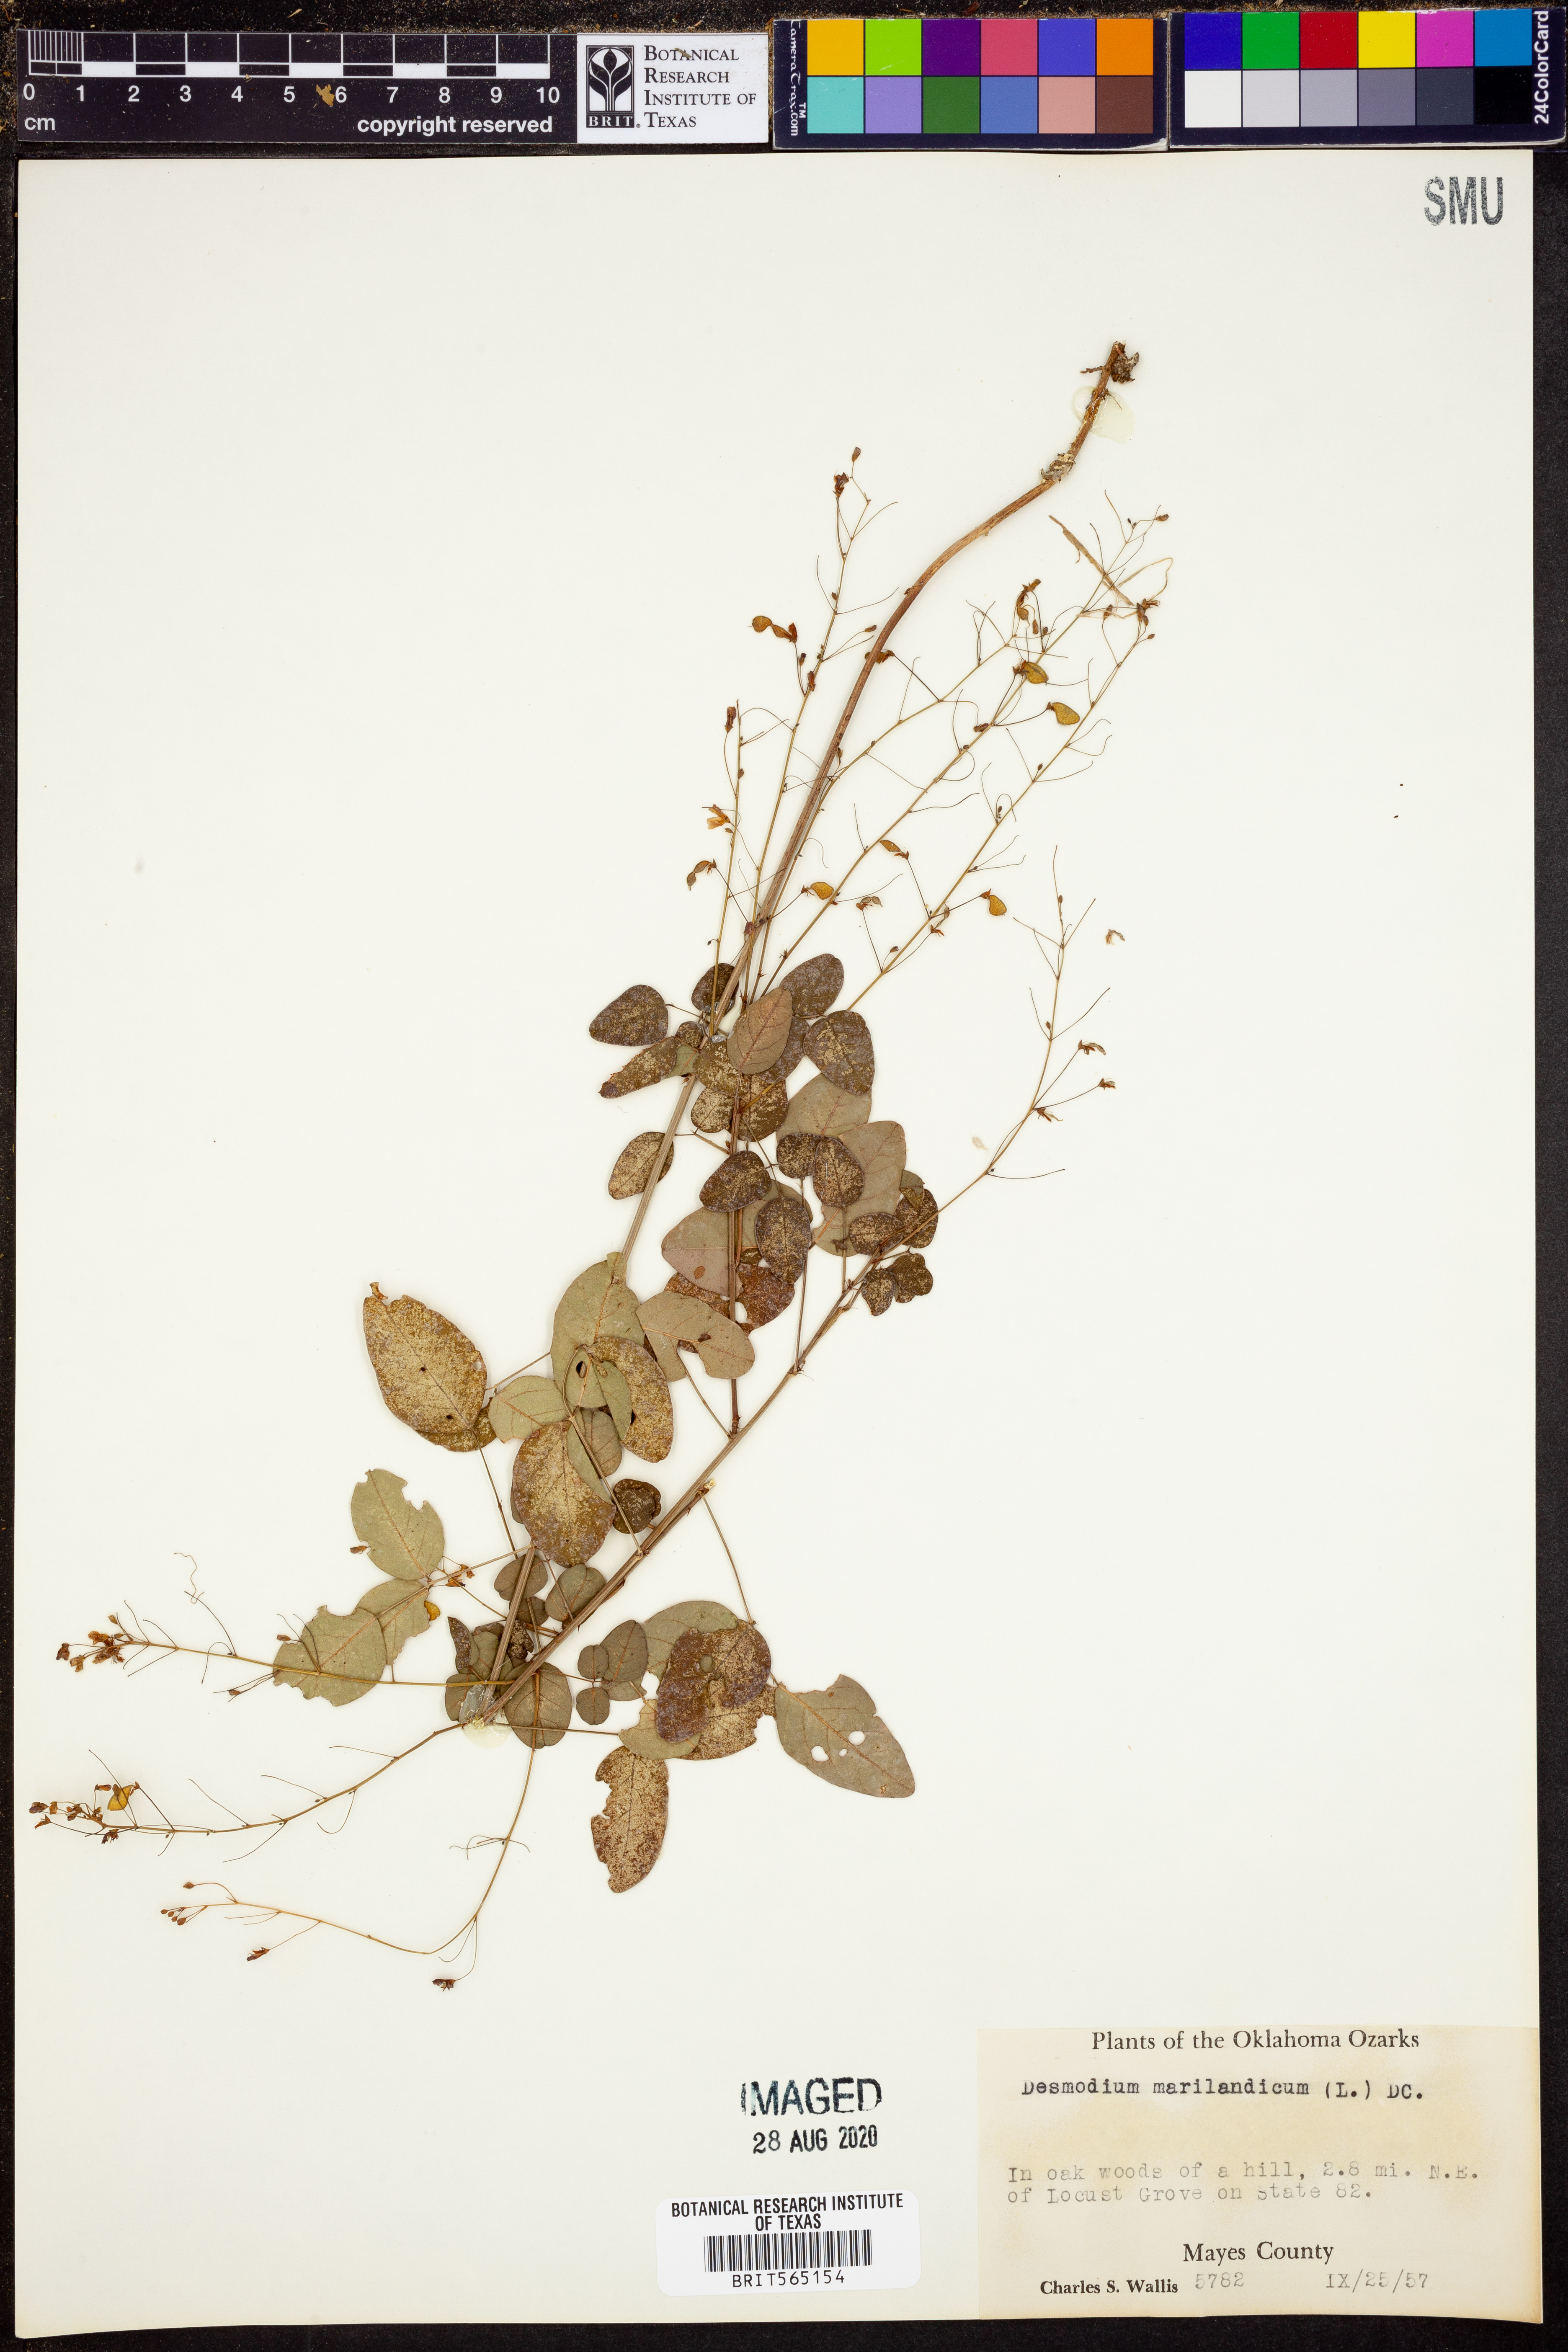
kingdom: Plantae
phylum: Tracheophyta
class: Magnoliopsida
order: Fabales
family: Fabaceae
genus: Desmodium
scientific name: Desmodium marilandicum
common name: Maryland tick-trefoil
